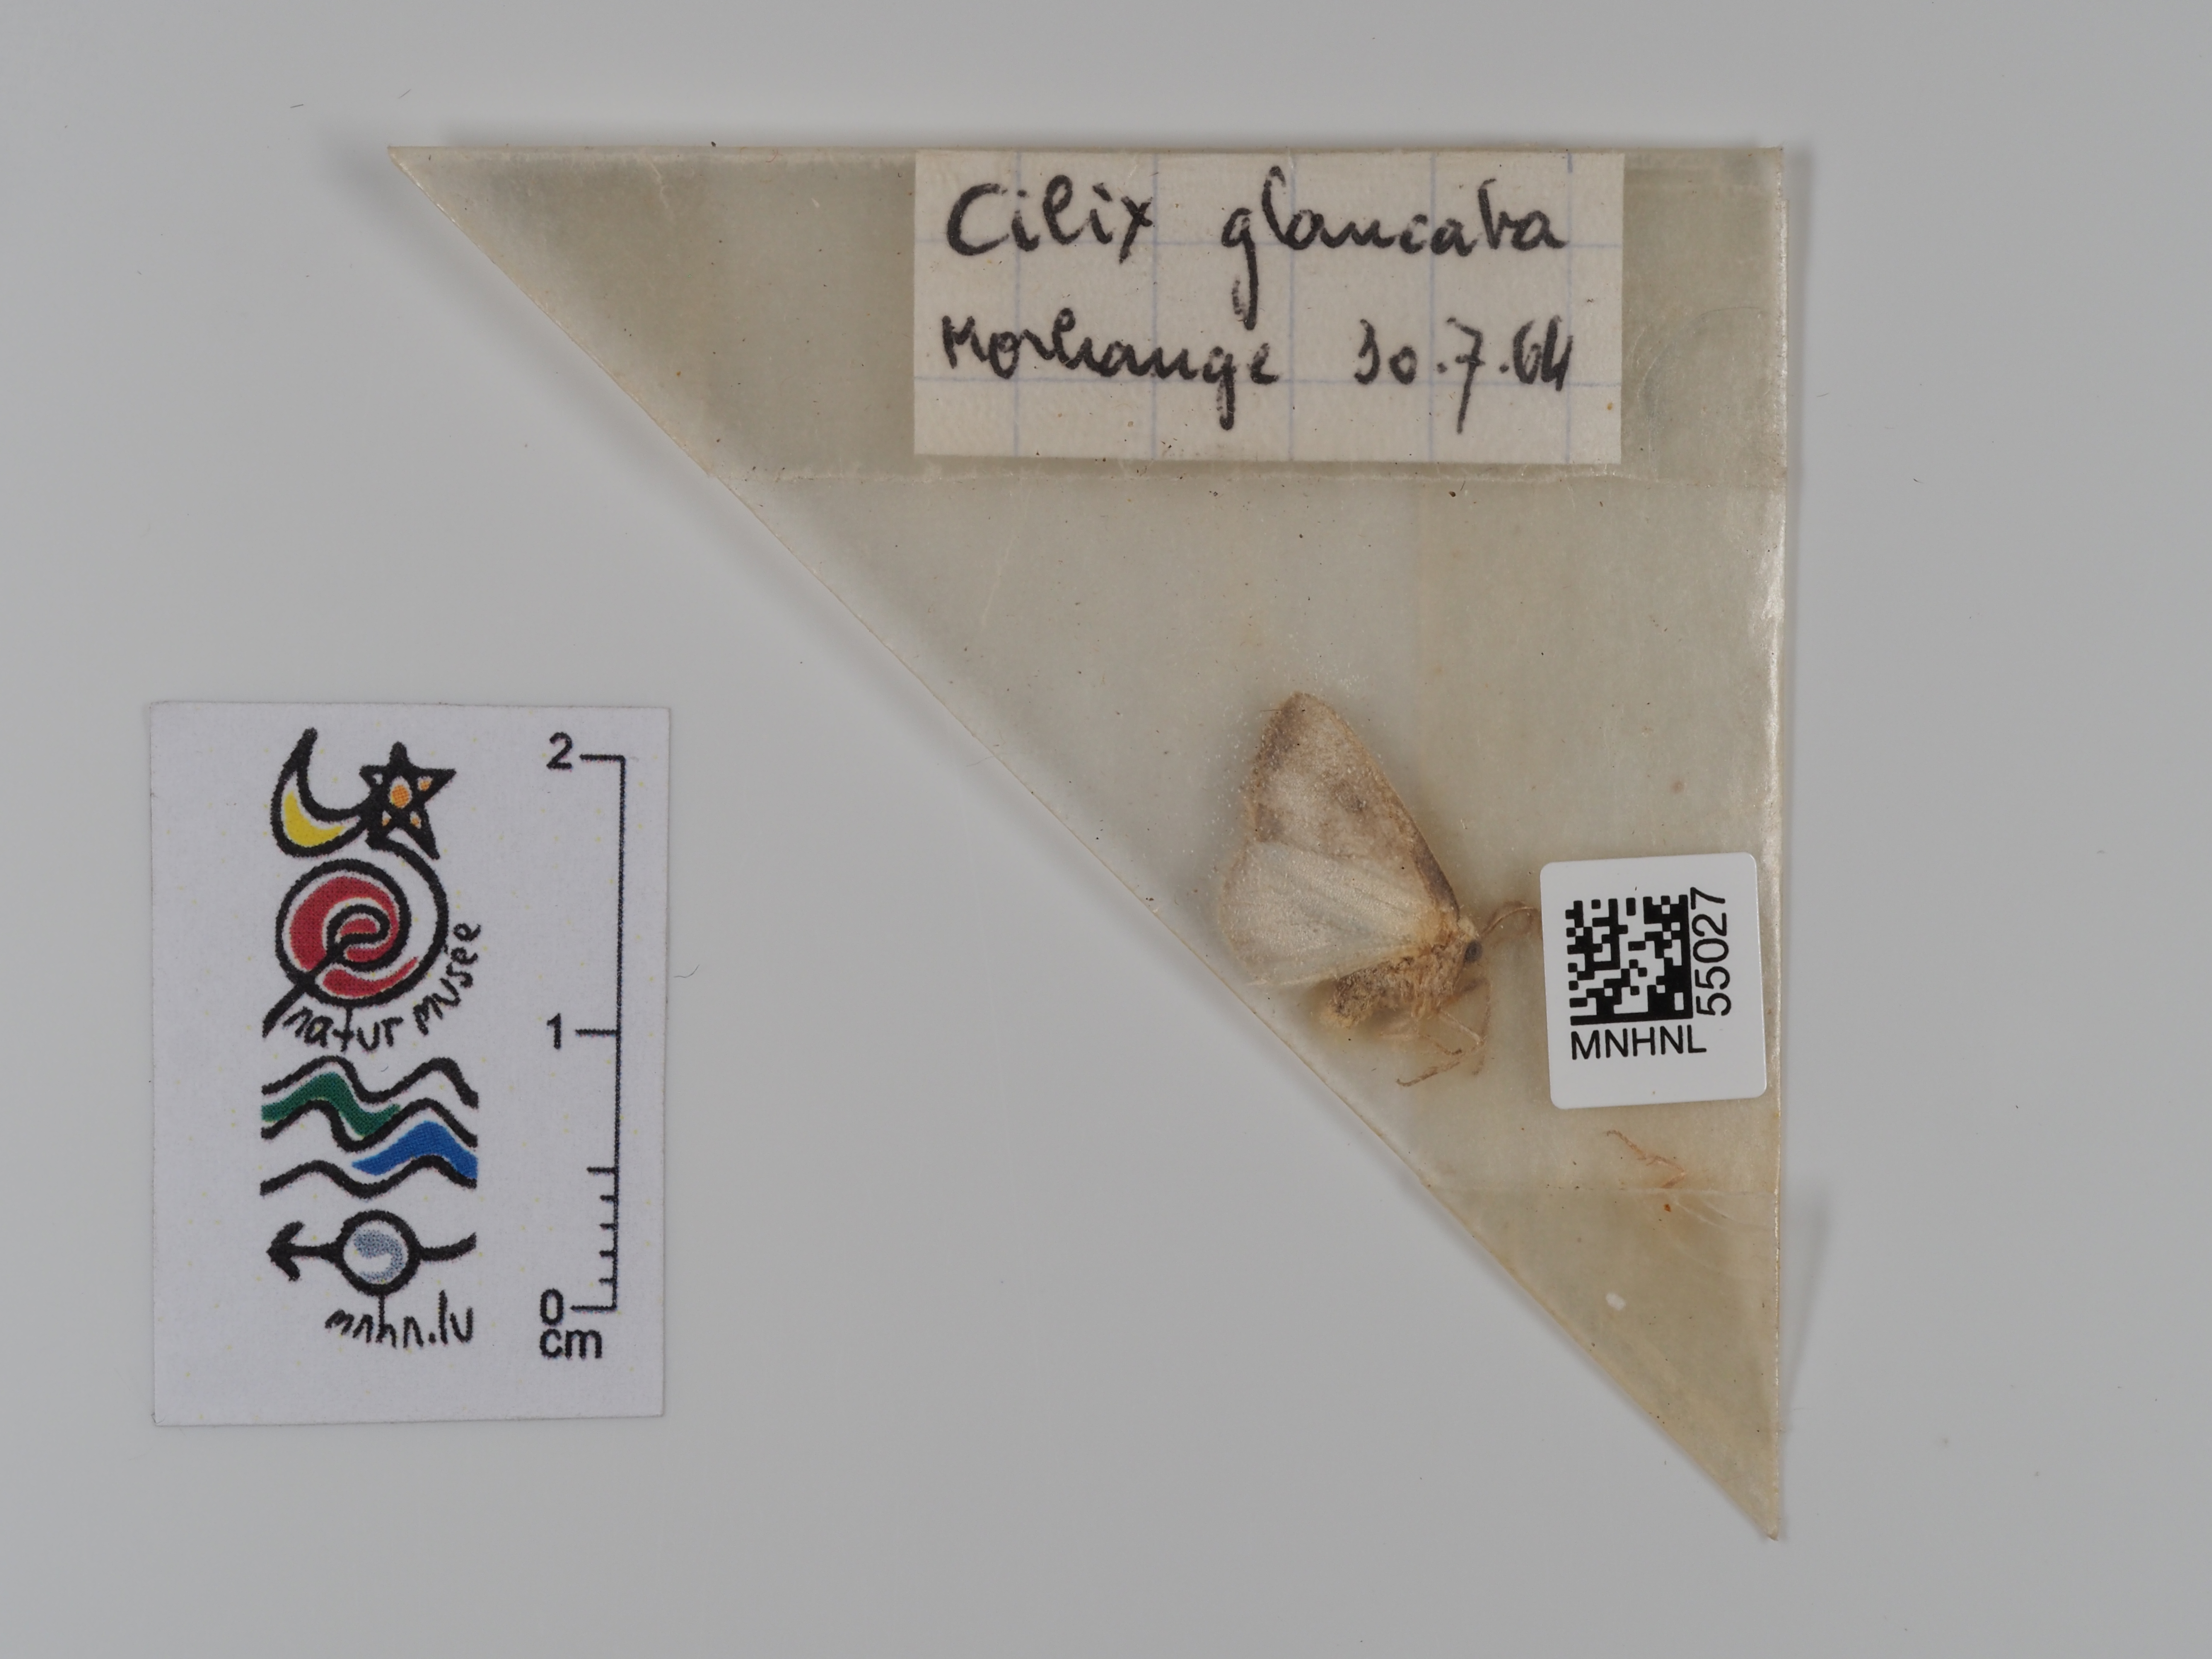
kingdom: Animalia
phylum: Arthropoda
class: Insecta
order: Lepidoptera
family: Drepanidae
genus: Cilix
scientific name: Cilix glaucata
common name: Chinese character
